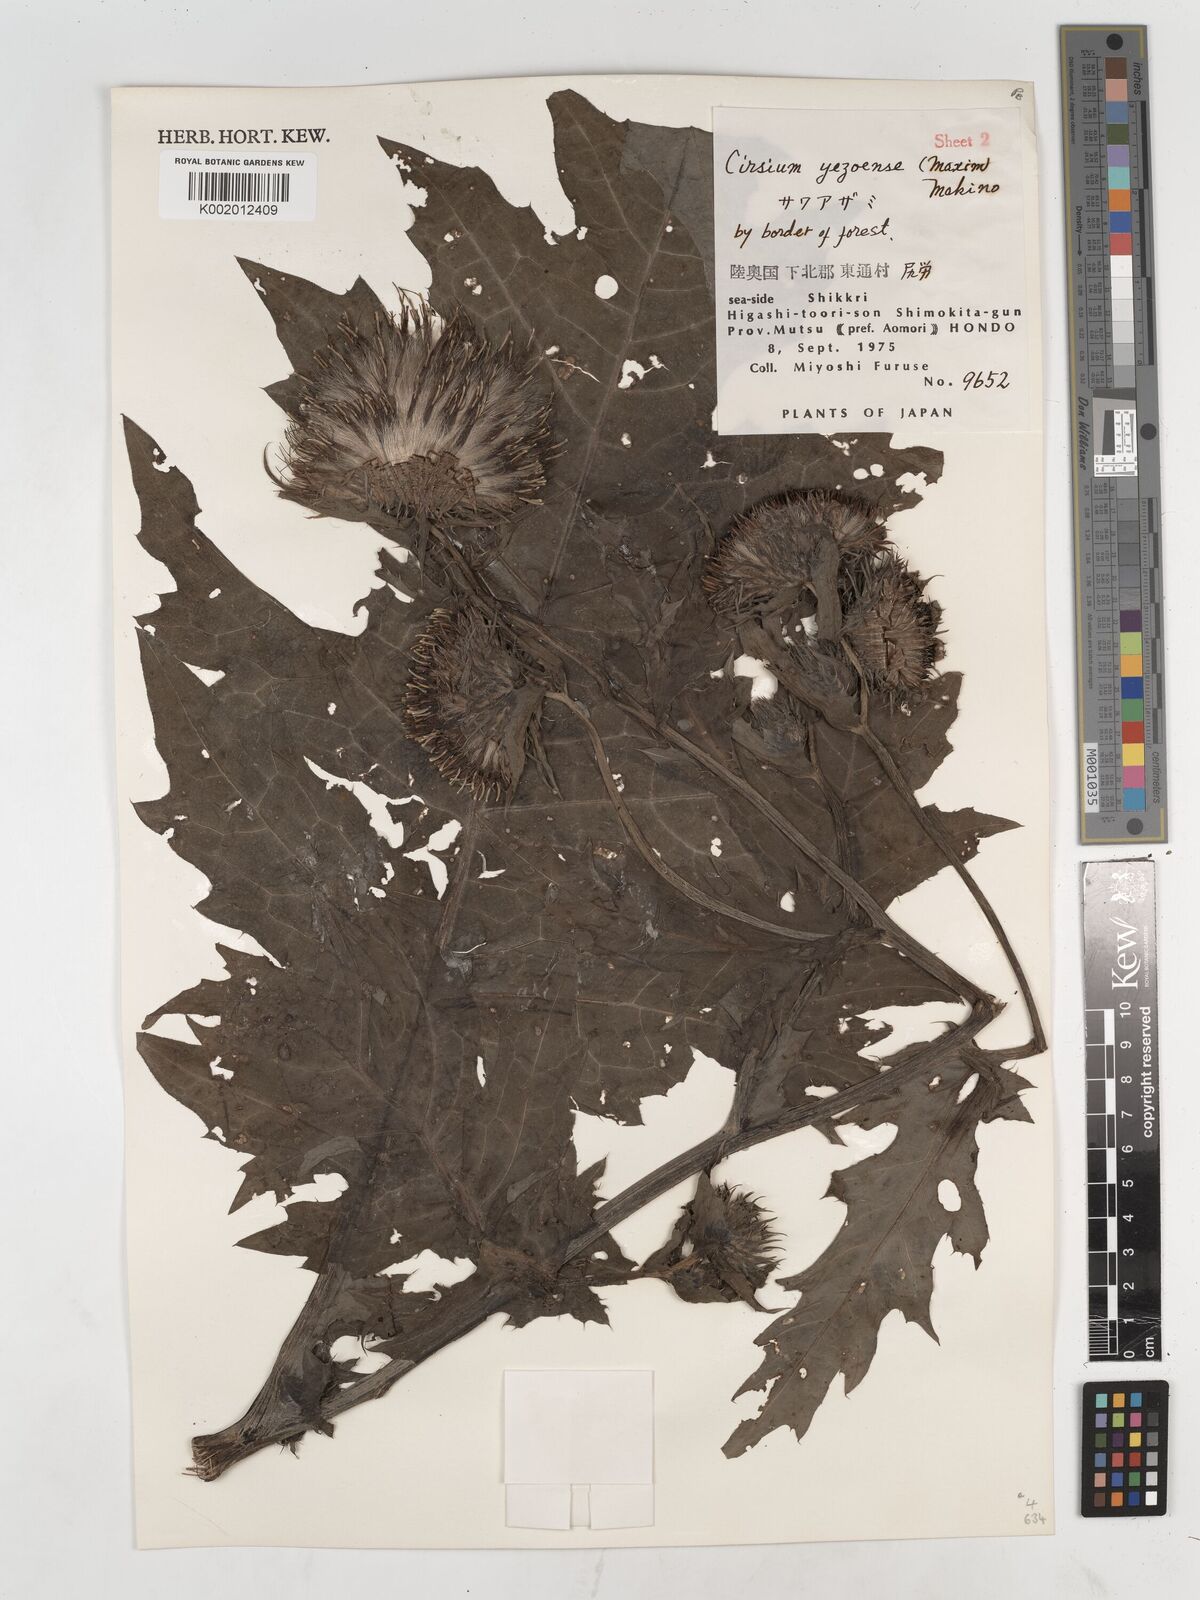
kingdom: Plantae
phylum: Tracheophyta
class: Magnoliopsida
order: Asterales
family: Asteraceae
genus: Cirsium
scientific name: Cirsium yezoense
